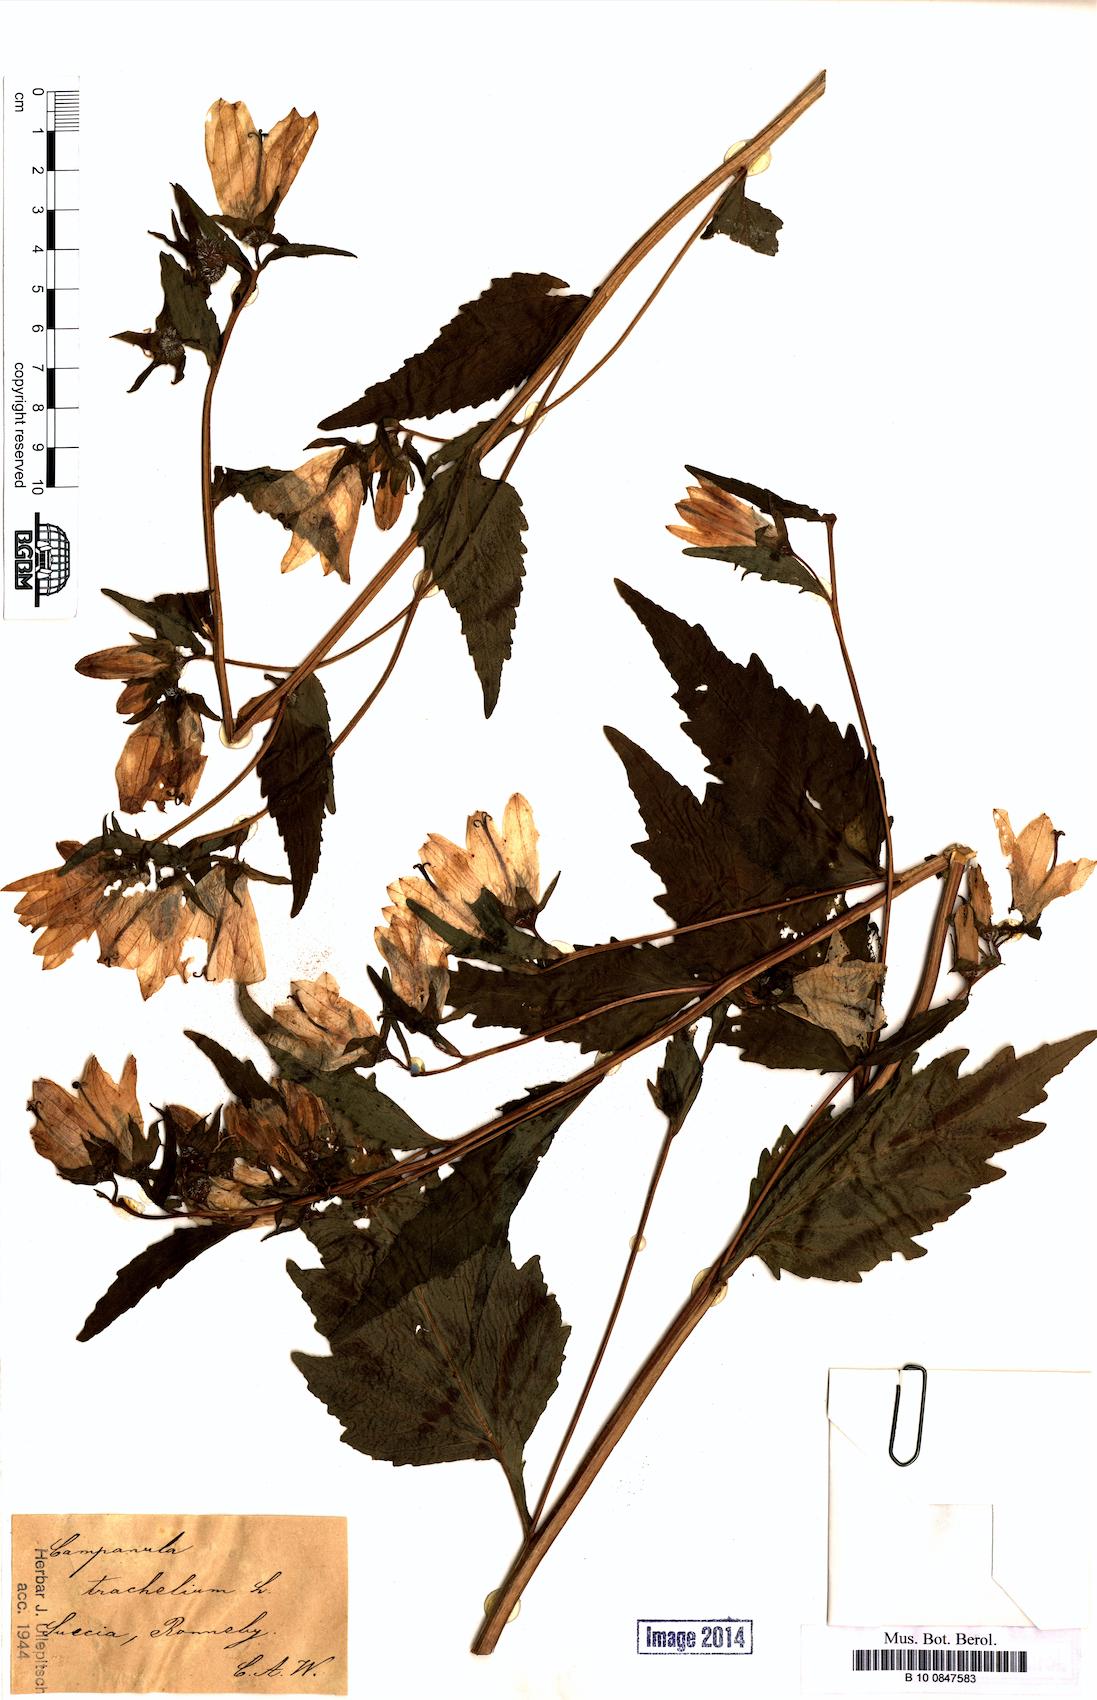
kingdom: Plantae
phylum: Tracheophyta
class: Magnoliopsida
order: Asterales
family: Campanulaceae
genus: Campanula
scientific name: Campanula trachelium
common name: Nettle-leaved bellflower
